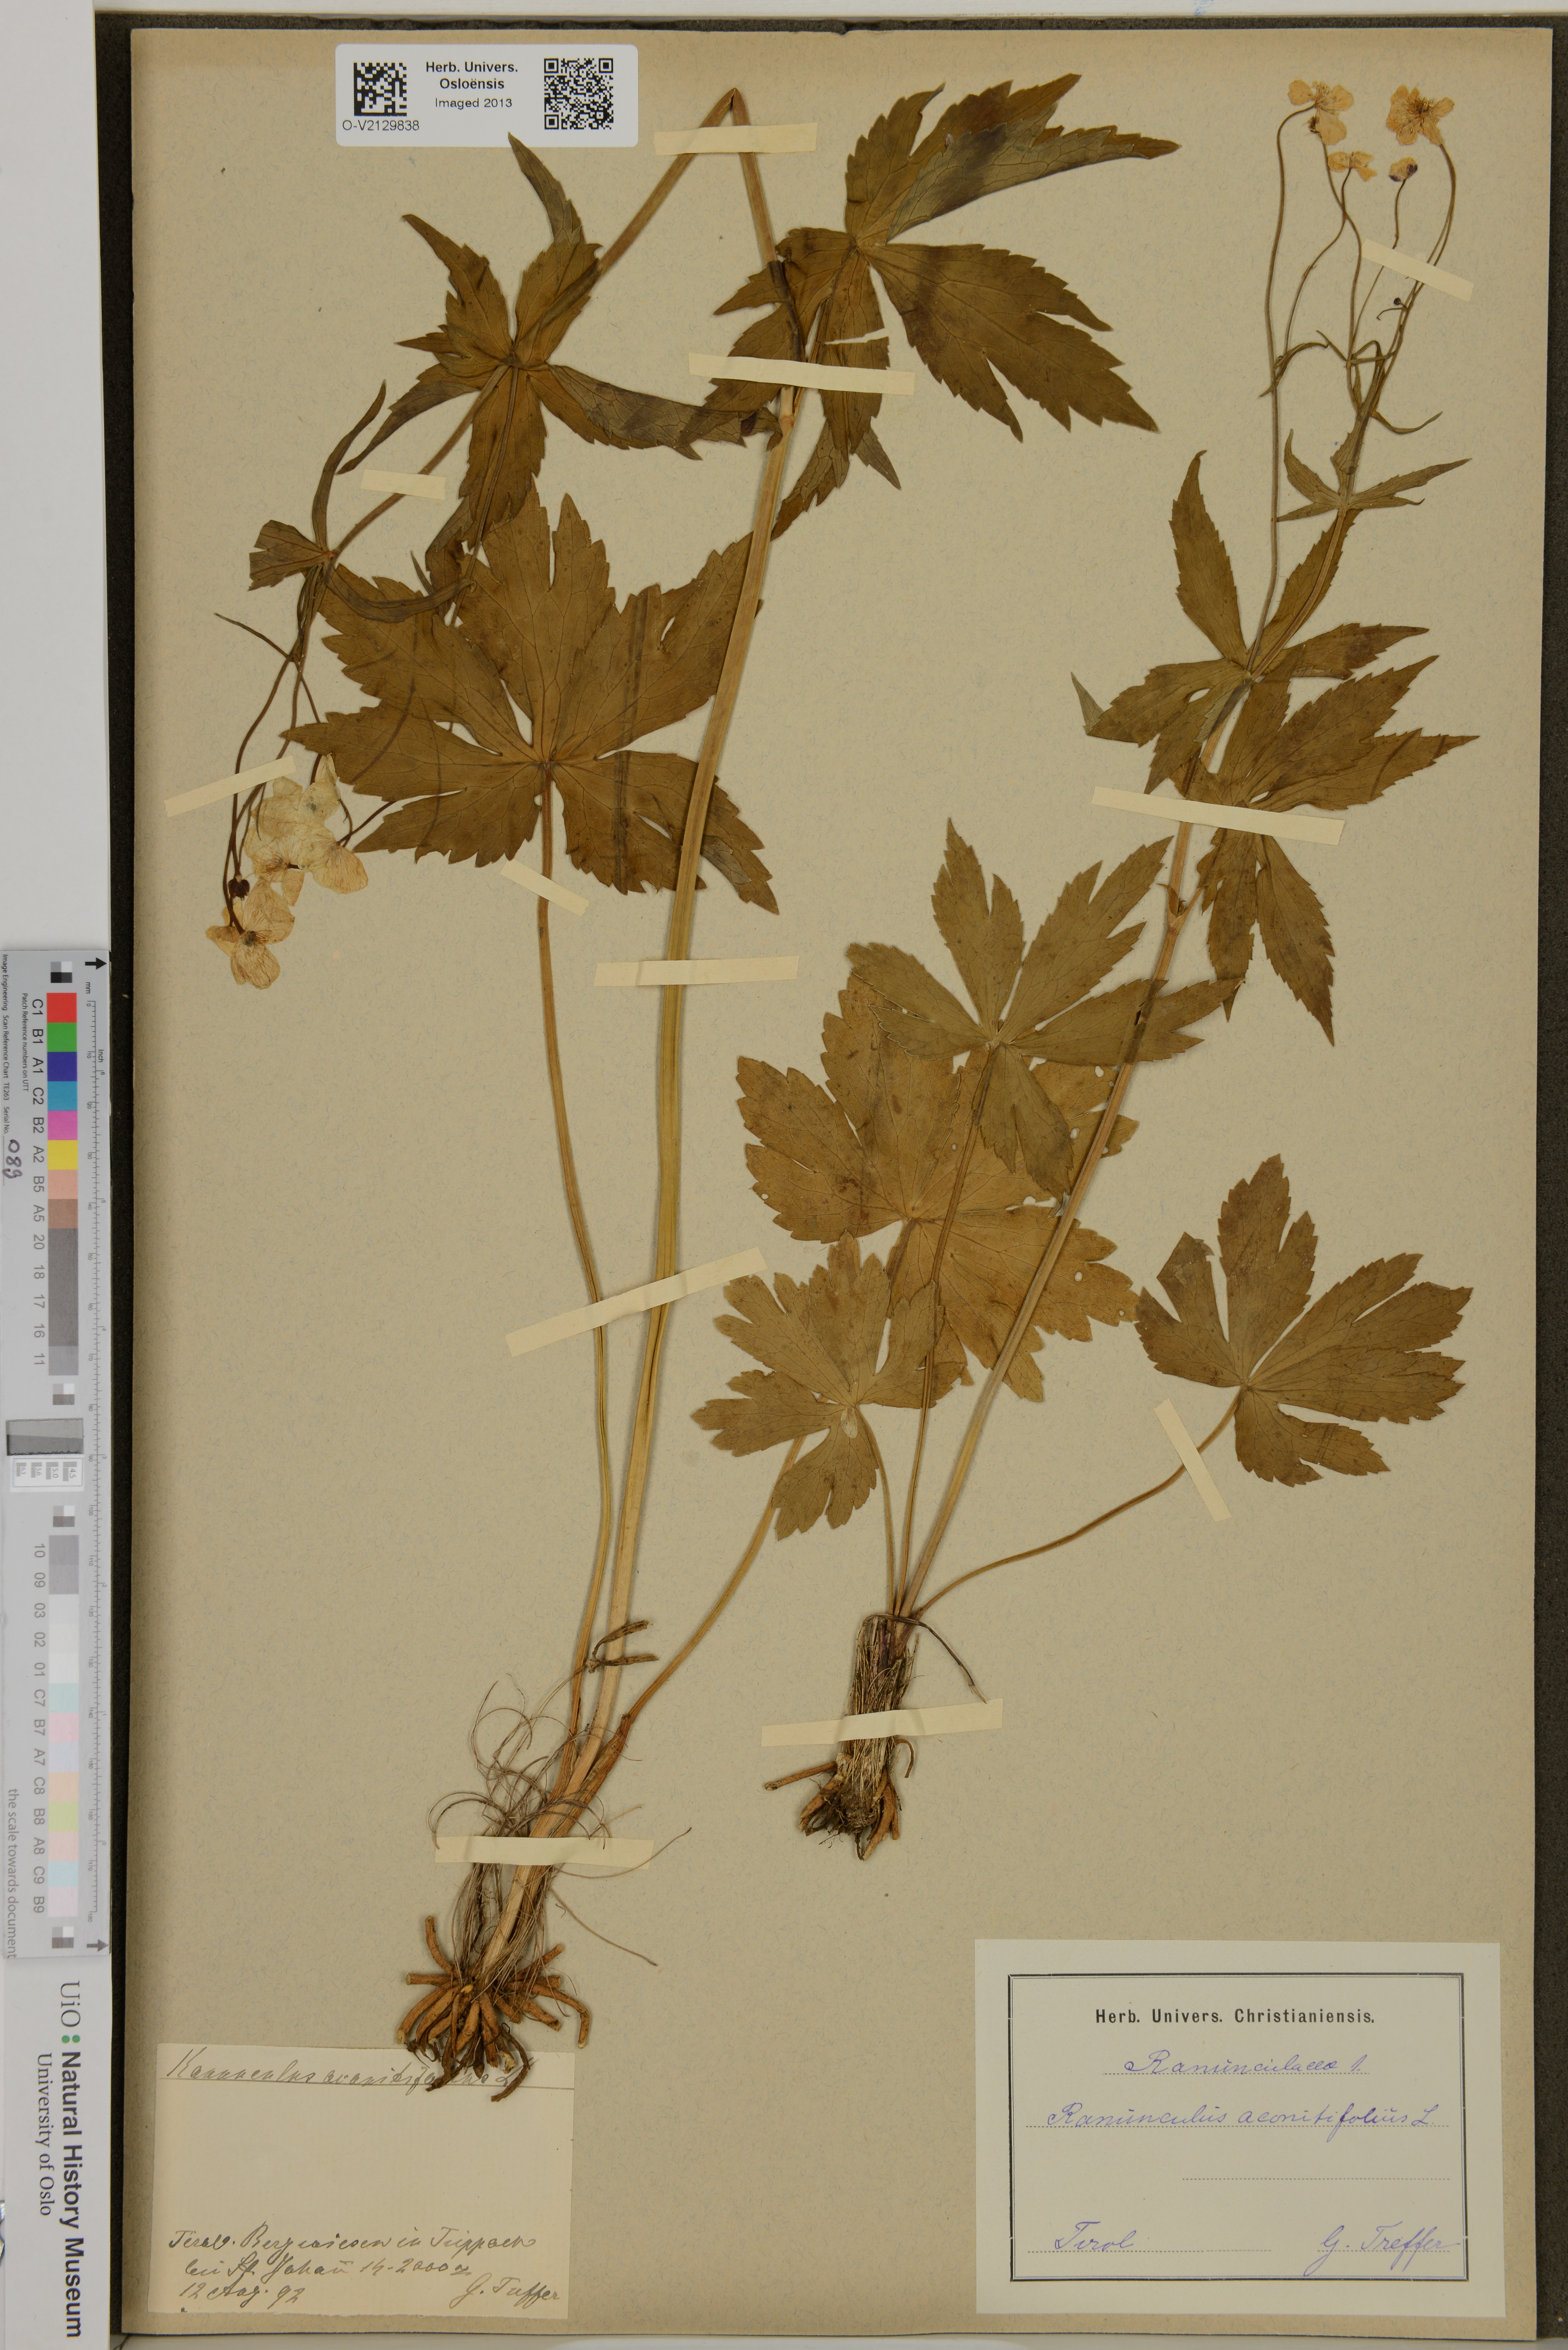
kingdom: Plantae
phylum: Tracheophyta
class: Magnoliopsida
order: Ranunculales
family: Ranunculaceae
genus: Ranunculus
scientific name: Ranunculus aconitifolius
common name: Aconite-leaved buttercup
